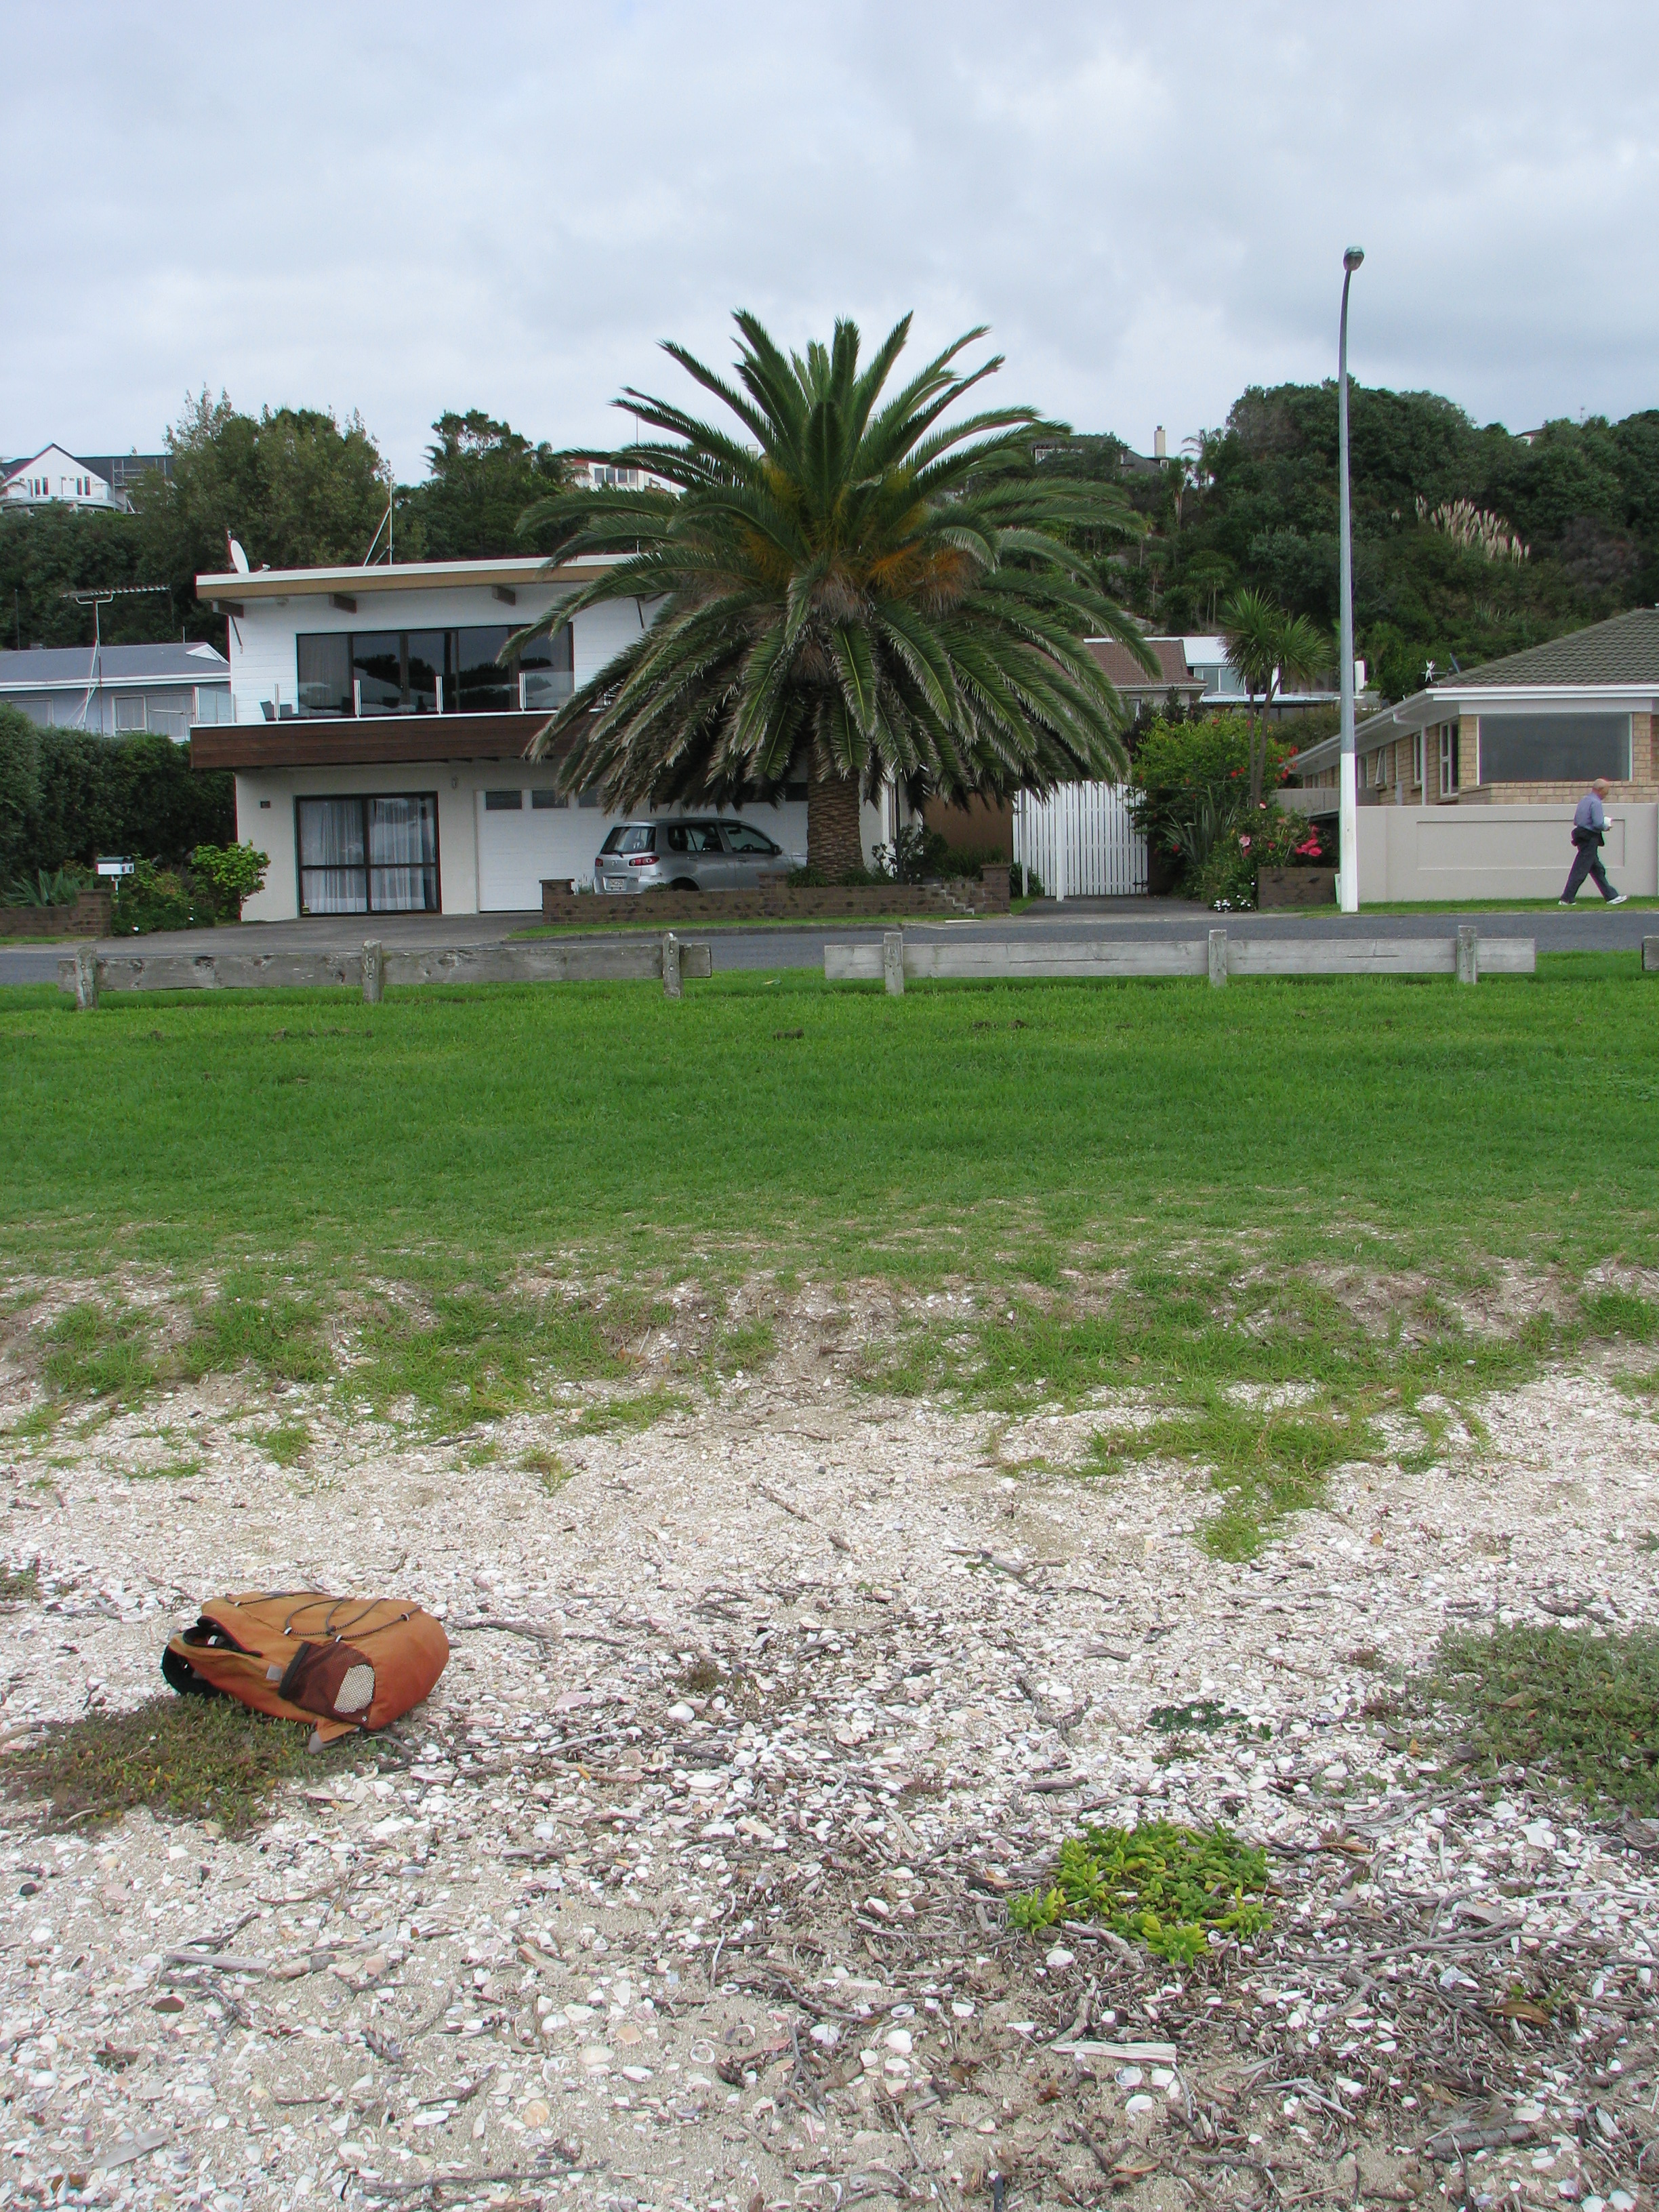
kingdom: Plantae
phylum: Tracheophyta
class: Magnoliopsida
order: Caryophyllales
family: Aizoaceae
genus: Tetragonia
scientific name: Tetragonia tetragonoides
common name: New zealand-spinach
